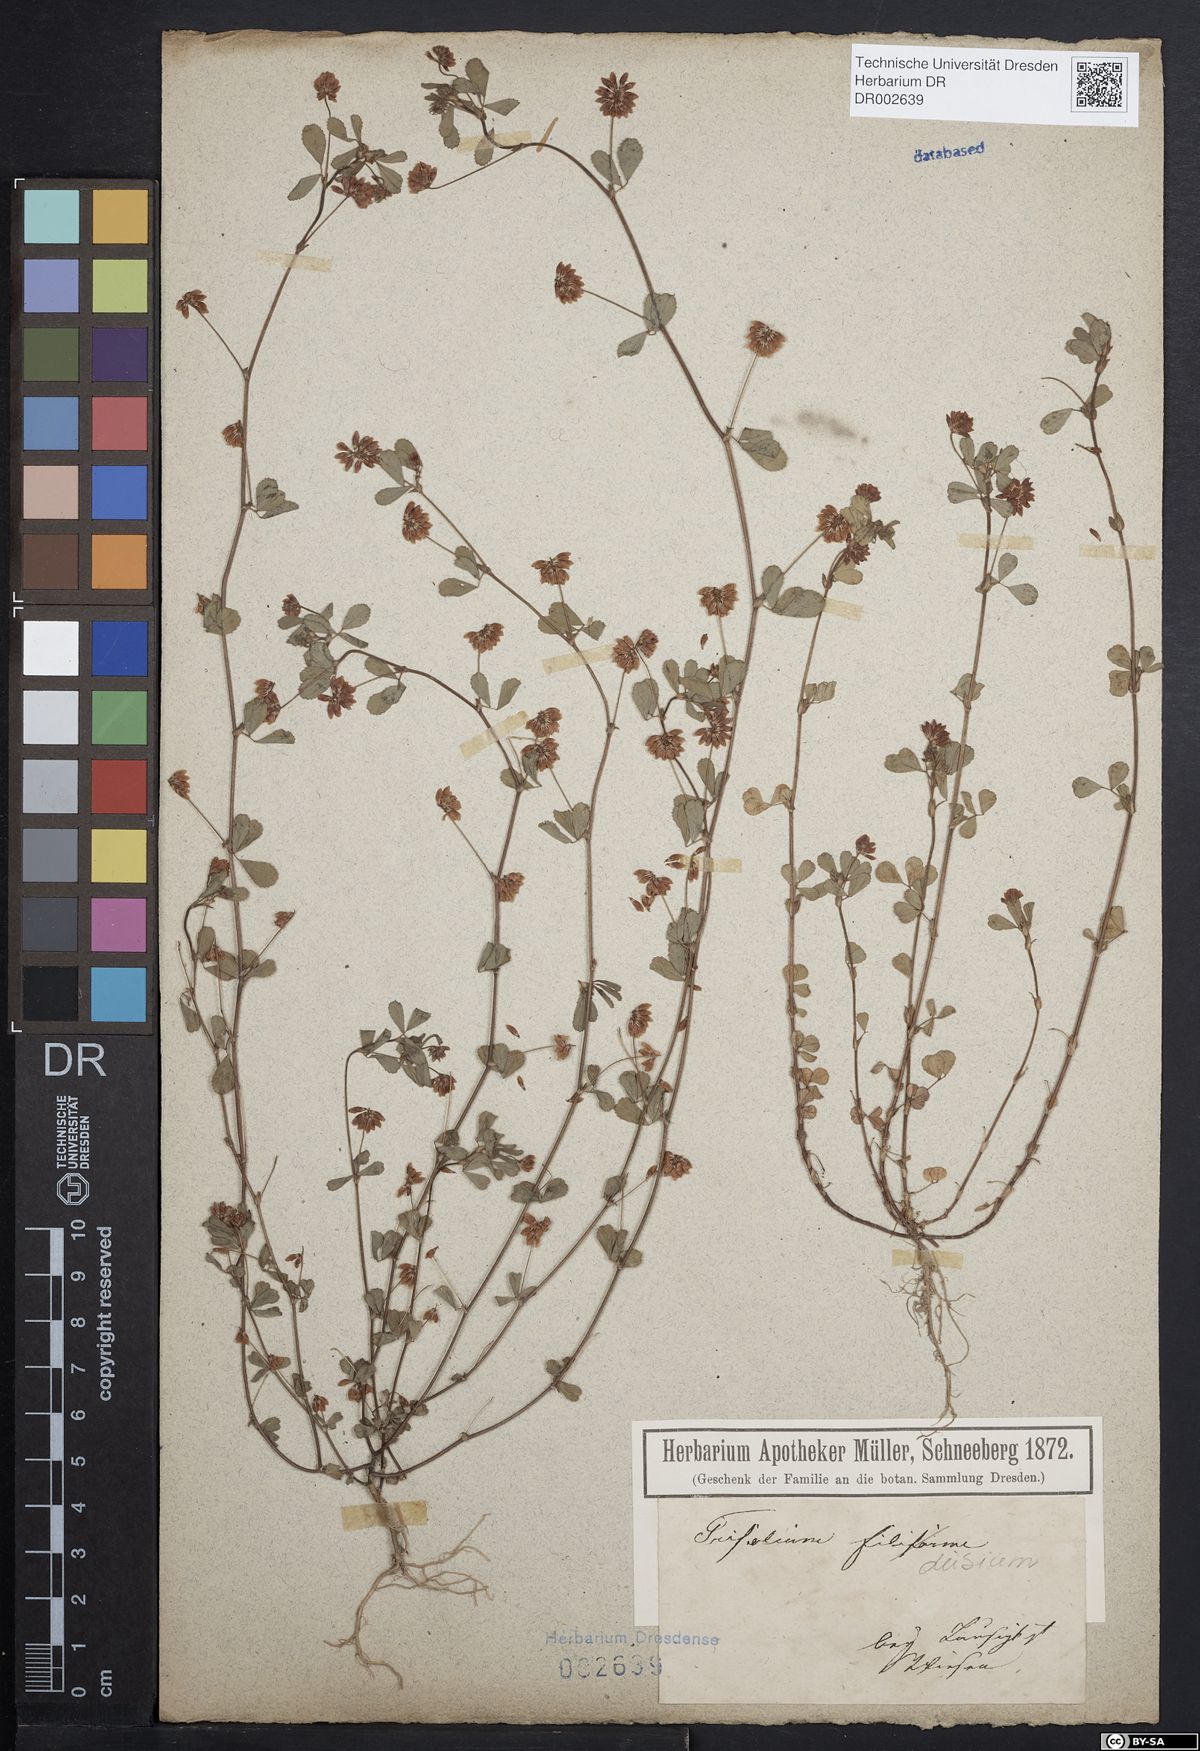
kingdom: Plantae
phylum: Tracheophyta
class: Magnoliopsida
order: Fabales
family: Fabaceae
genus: Trifolium
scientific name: Trifolium dubium
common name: Suckling clover
